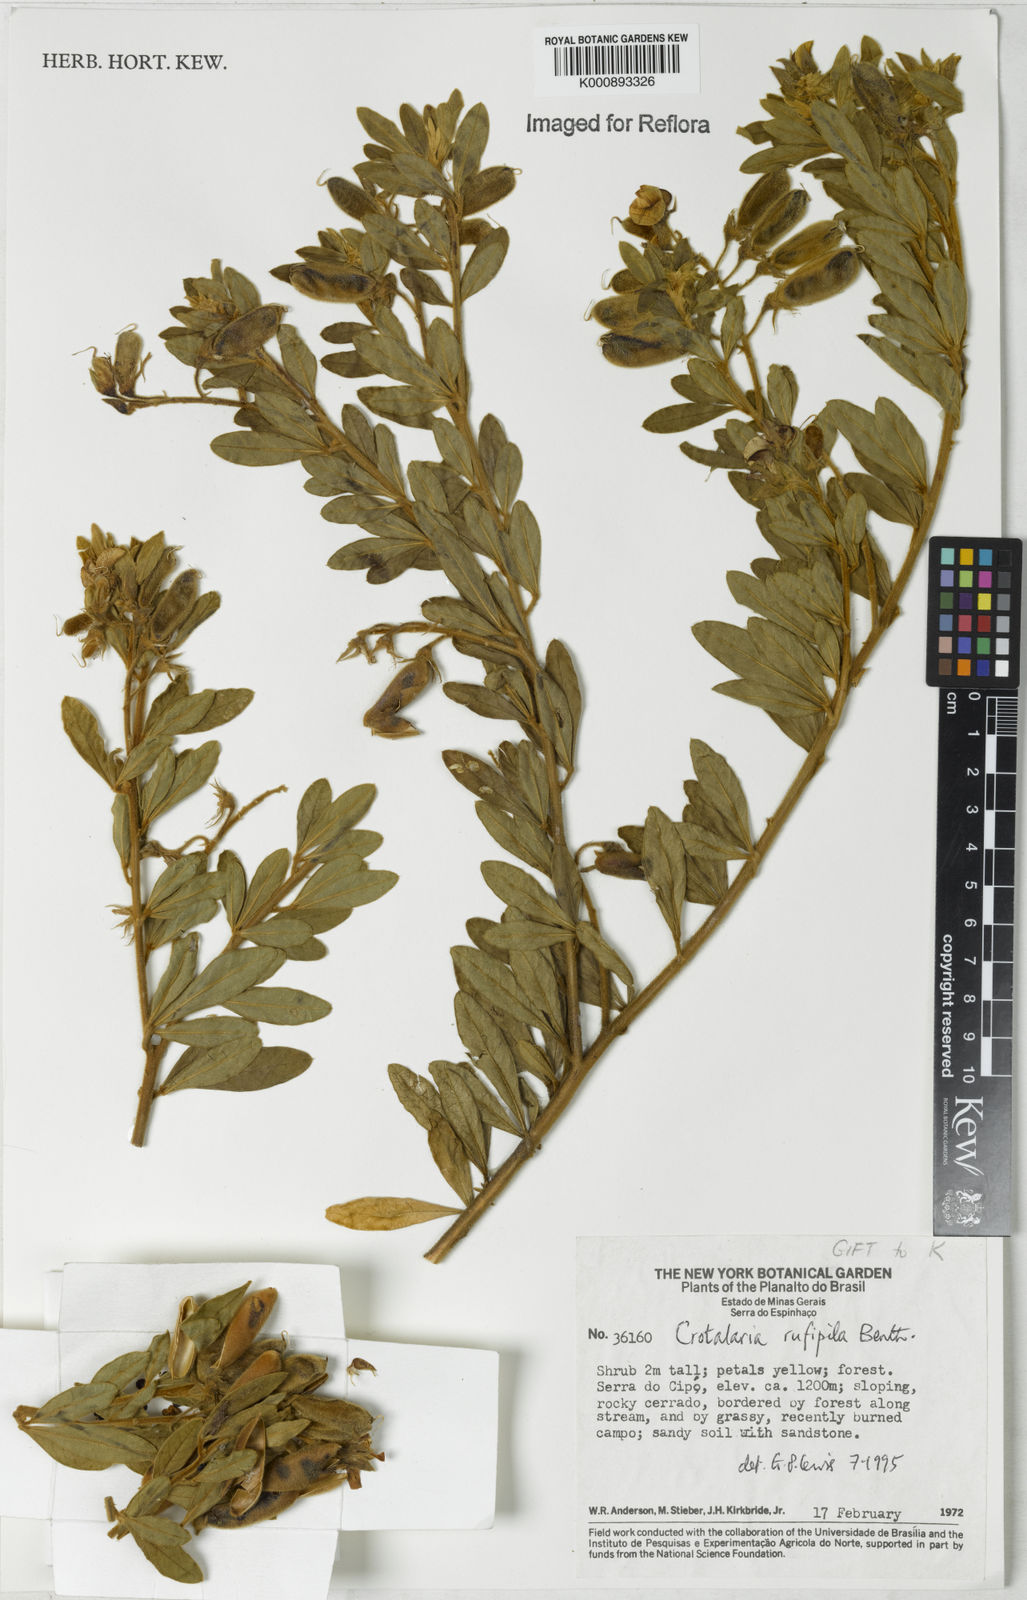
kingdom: Plantae
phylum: Tracheophyta
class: Magnoliopsida
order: Fabales
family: Fabaceae
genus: Crotalaria
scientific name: Crotalaria rufipila
